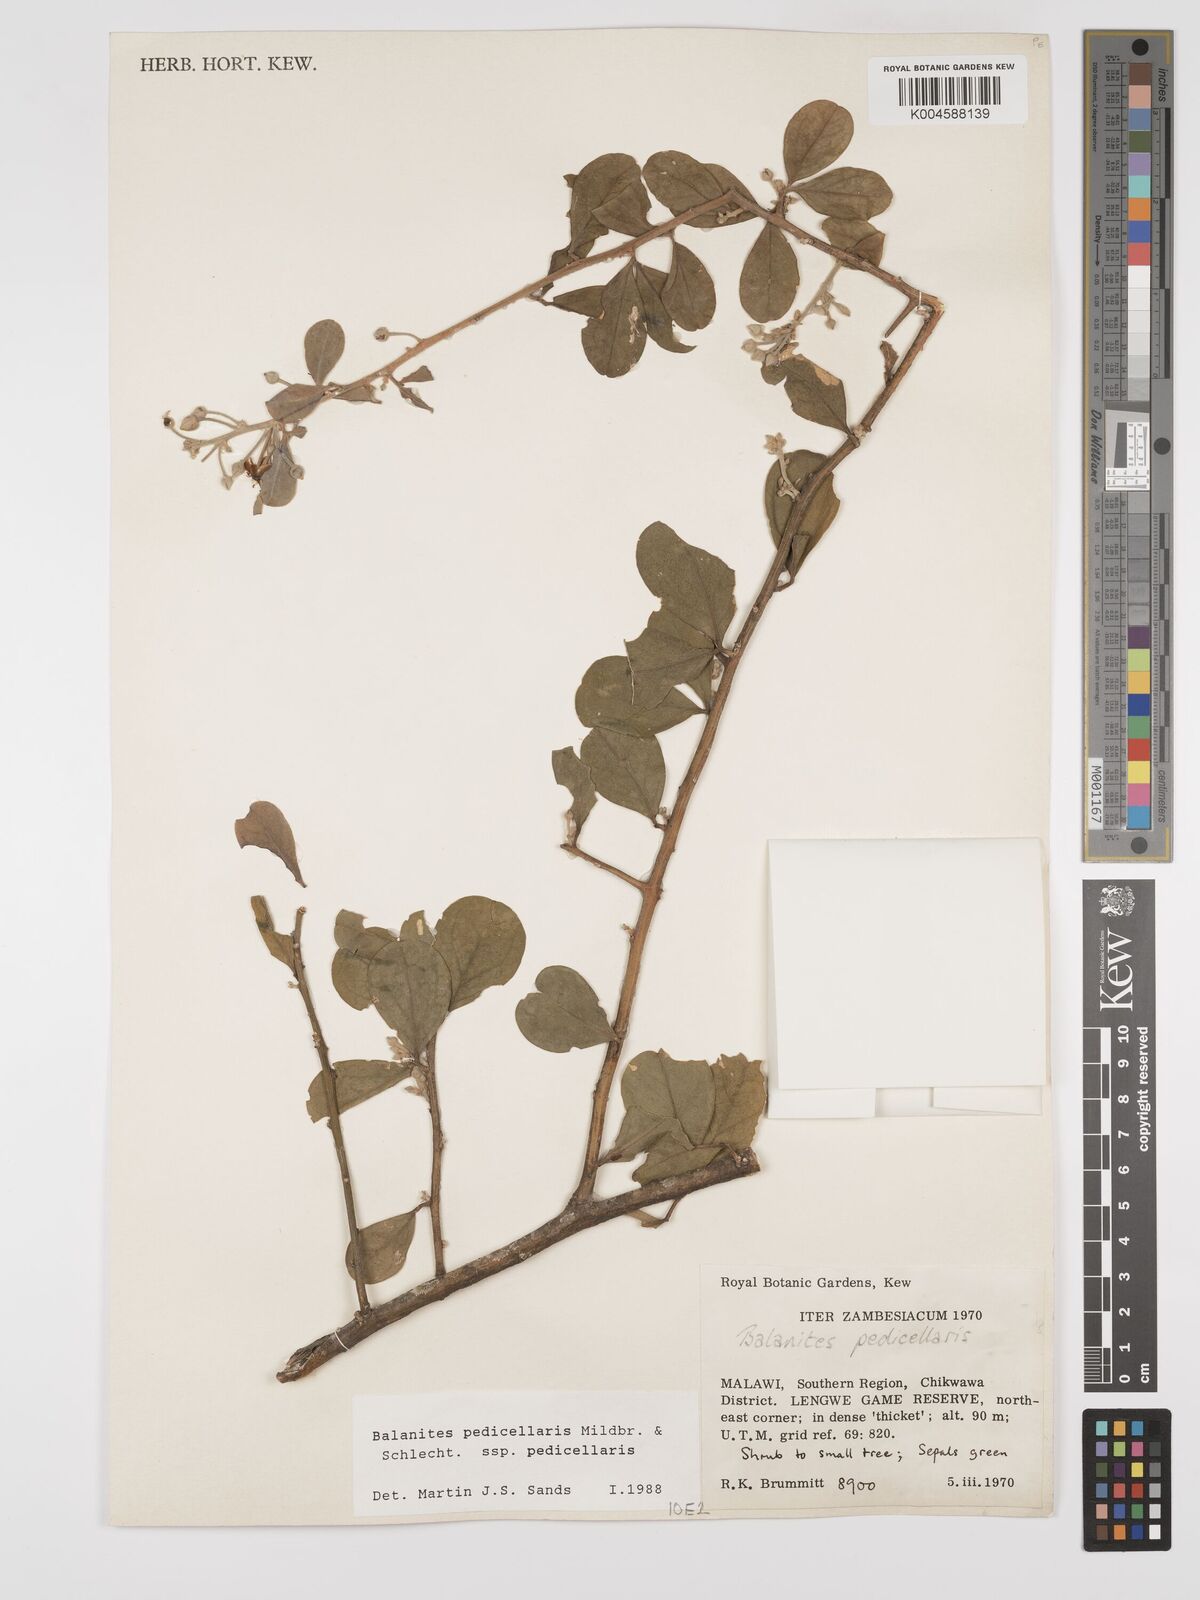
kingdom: Plantae
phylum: Tracheophyta
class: Magnoliopsida
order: Zygophyllales
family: Zygophyllaceae
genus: Balanites
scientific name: Balanites pedicellaris
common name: Small green-thorn
